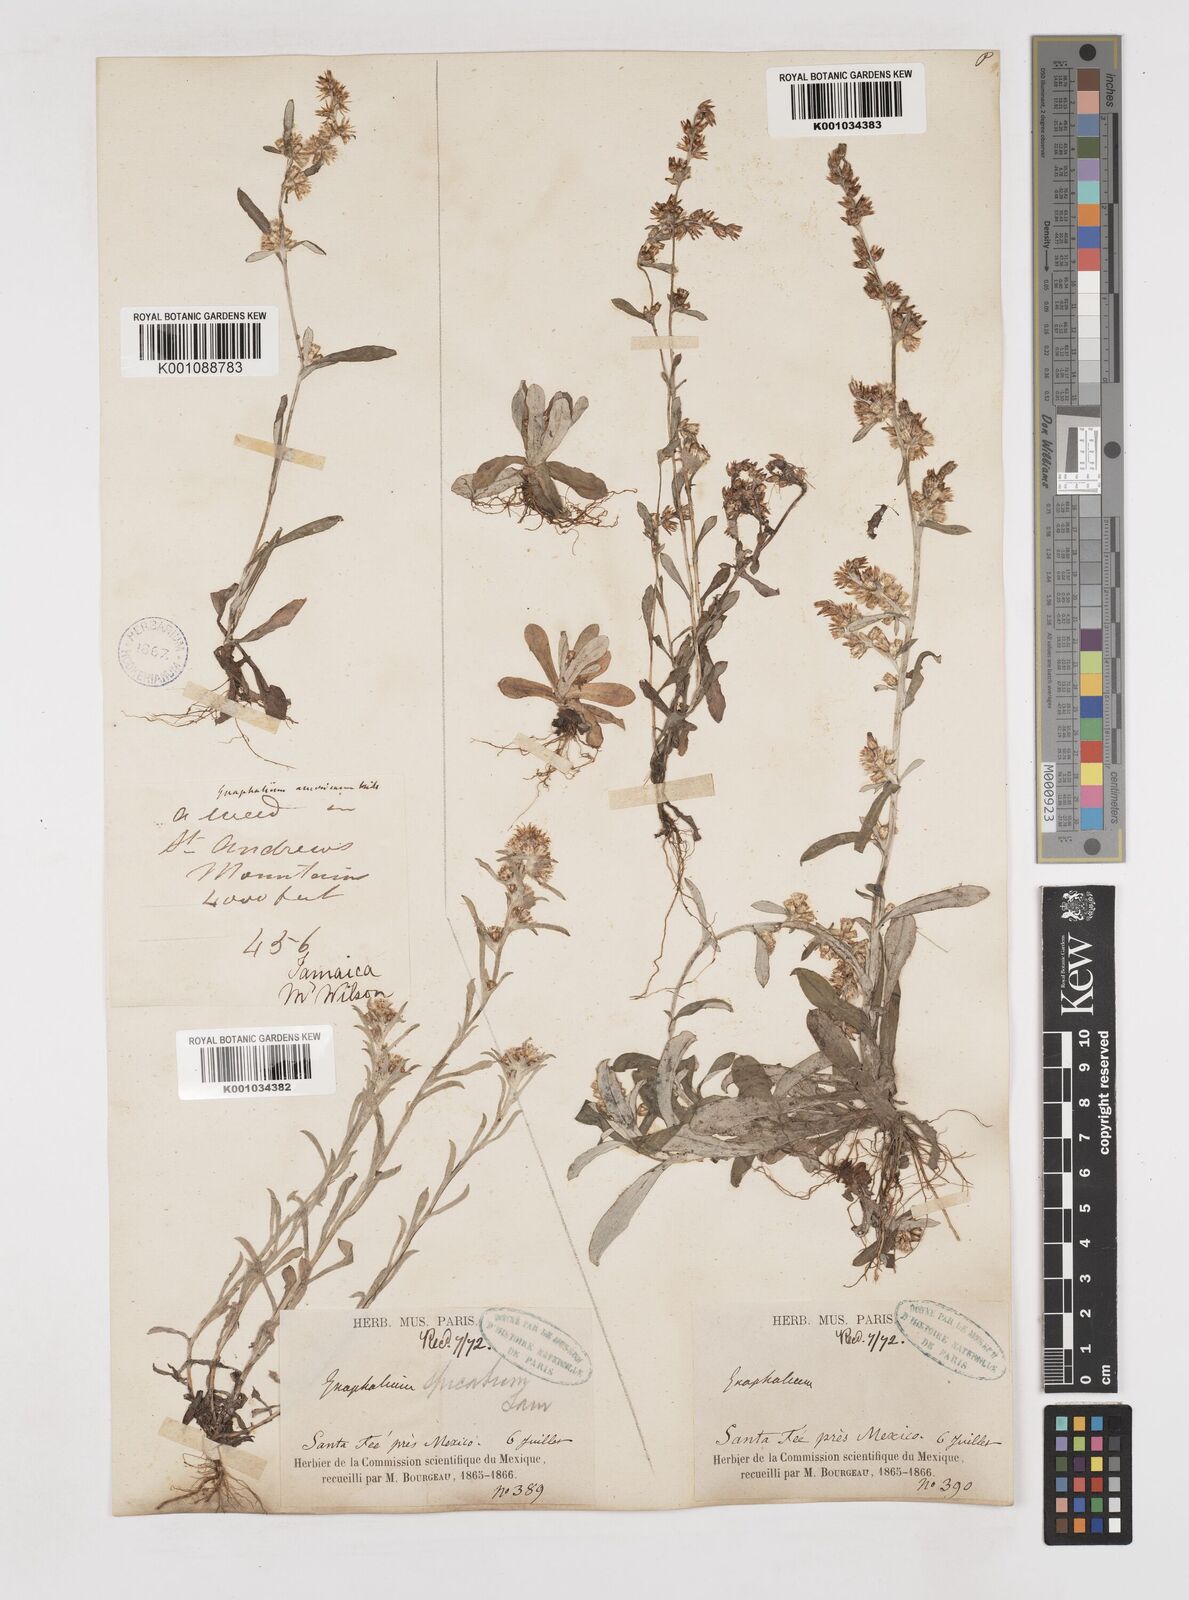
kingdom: Plantae
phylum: Tracheophyta
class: Magnoliopsida
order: Asterales
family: Asteraceae
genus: Gamochaeta
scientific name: Gamochaeta americana
